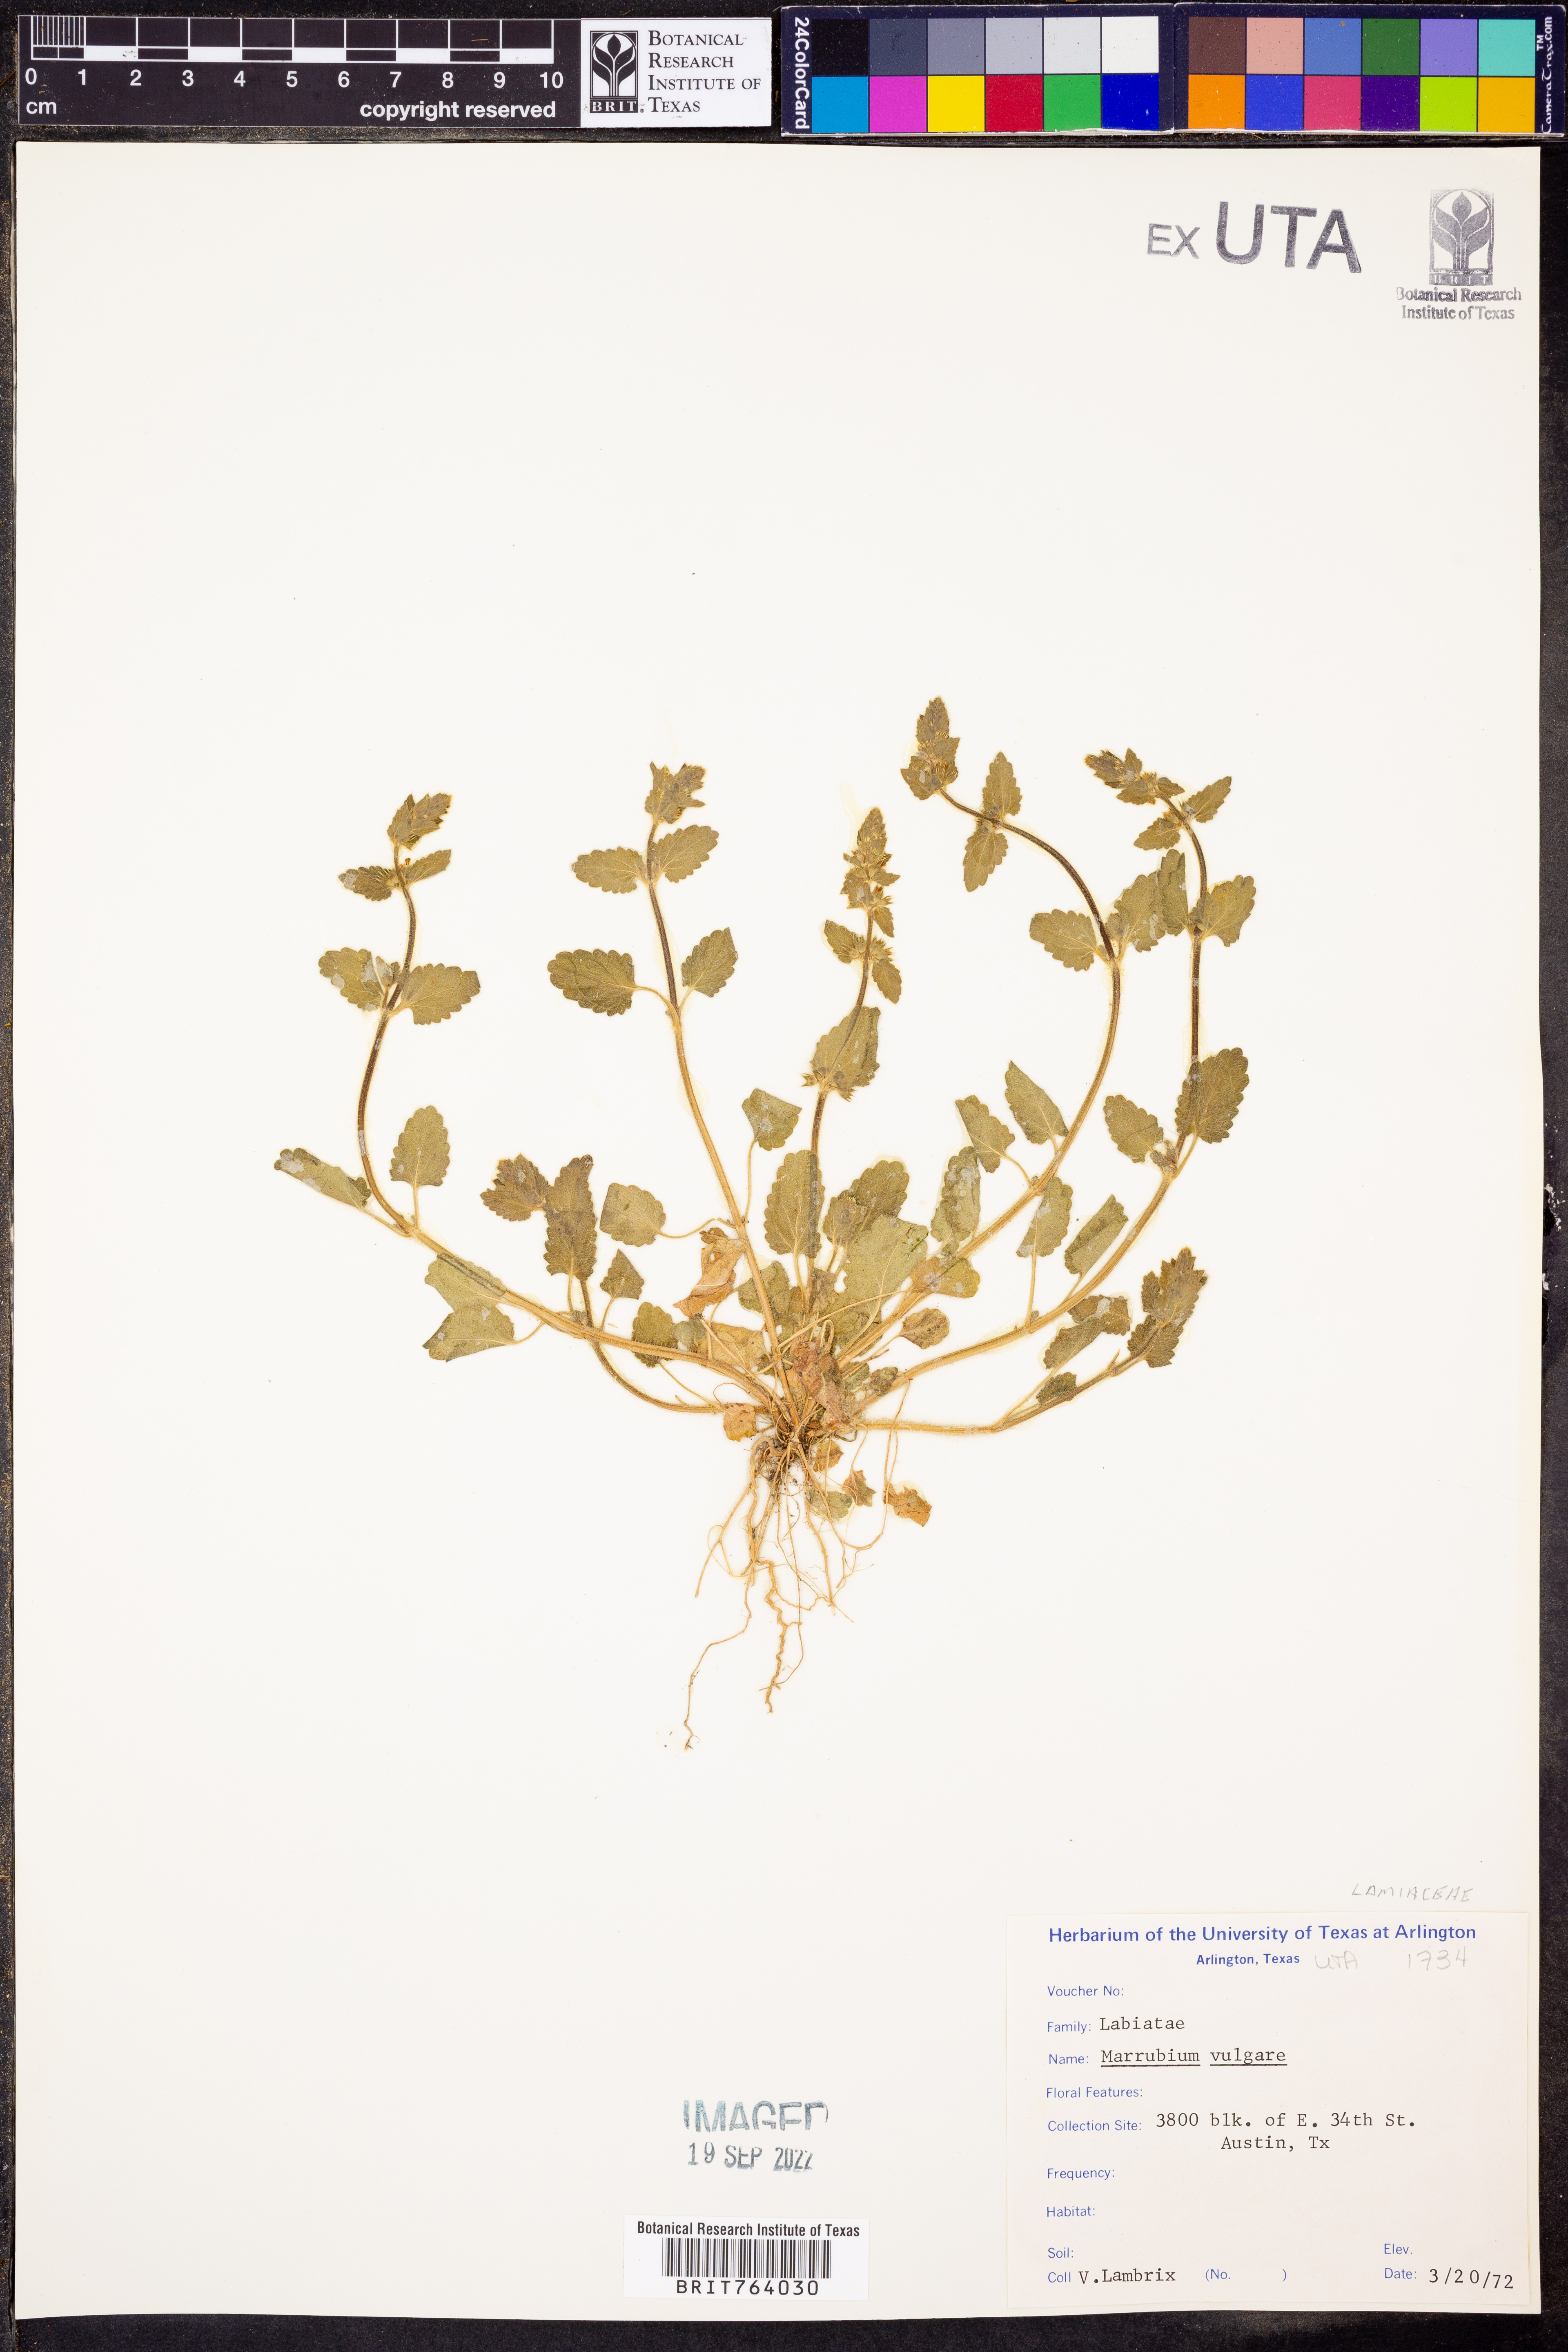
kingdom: Plantae
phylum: Tracheophyta
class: Magnoliopsida
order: Lamiales
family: Lamiaceae
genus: Marrubium
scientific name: Marrubium vulgare
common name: Horehound
